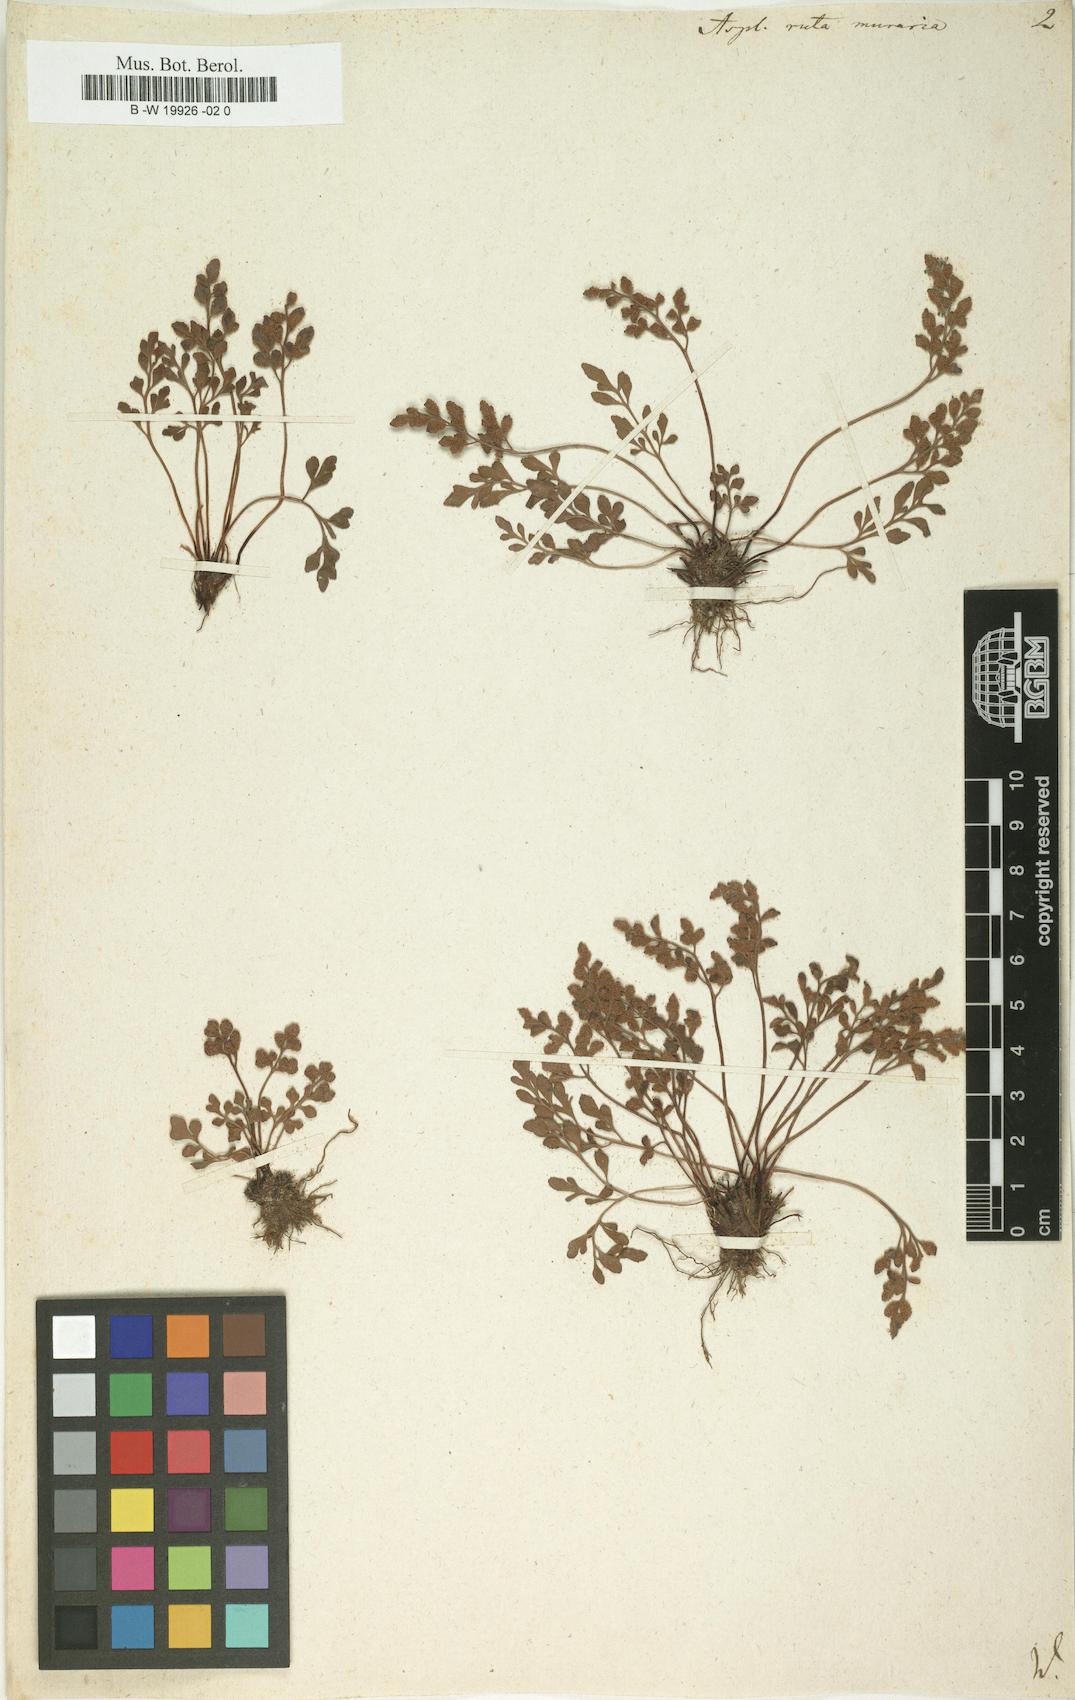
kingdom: Plantae
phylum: Tracheophyta
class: Polypodiopsida
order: Polypodiales
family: Aspleniaceae
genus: Asplenium
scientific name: Asplenium ruta-muraria
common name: Wall-rue
